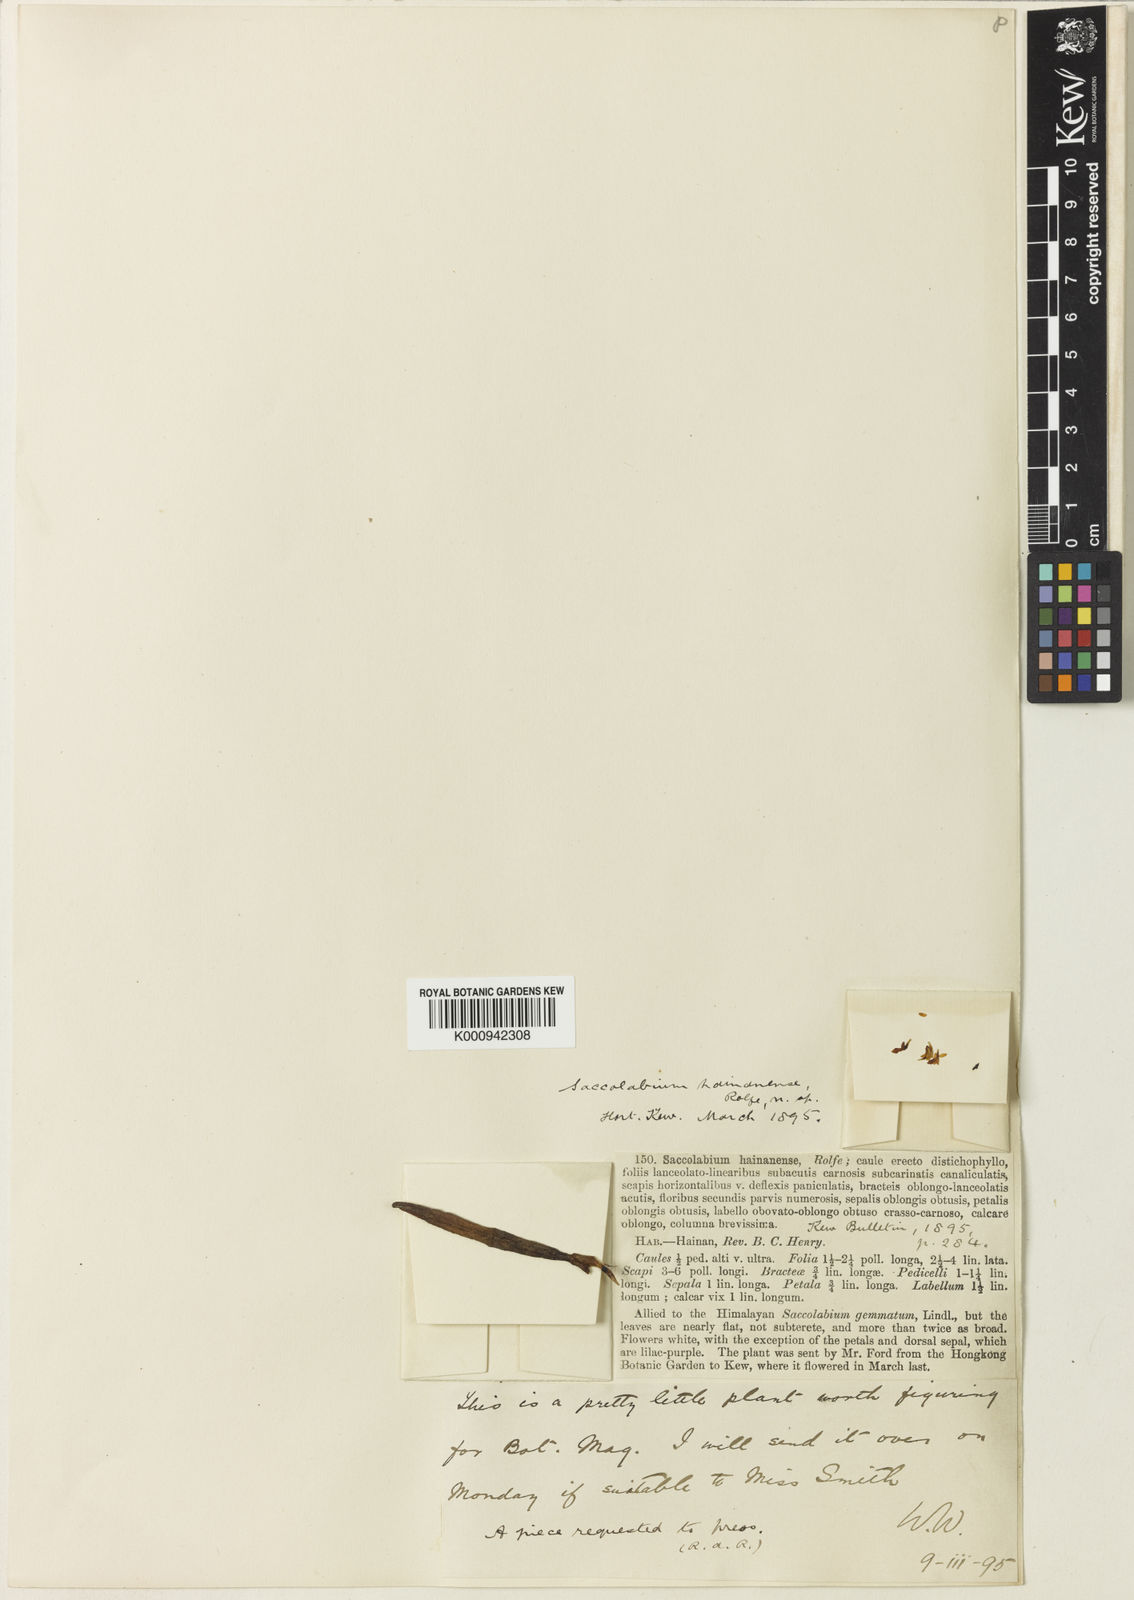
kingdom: Plantae
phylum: Tracheophyta
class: Liliopsida
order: Asparagales
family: Orchidaceae
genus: Schoenorchis
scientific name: Schoenorchis gemmata
